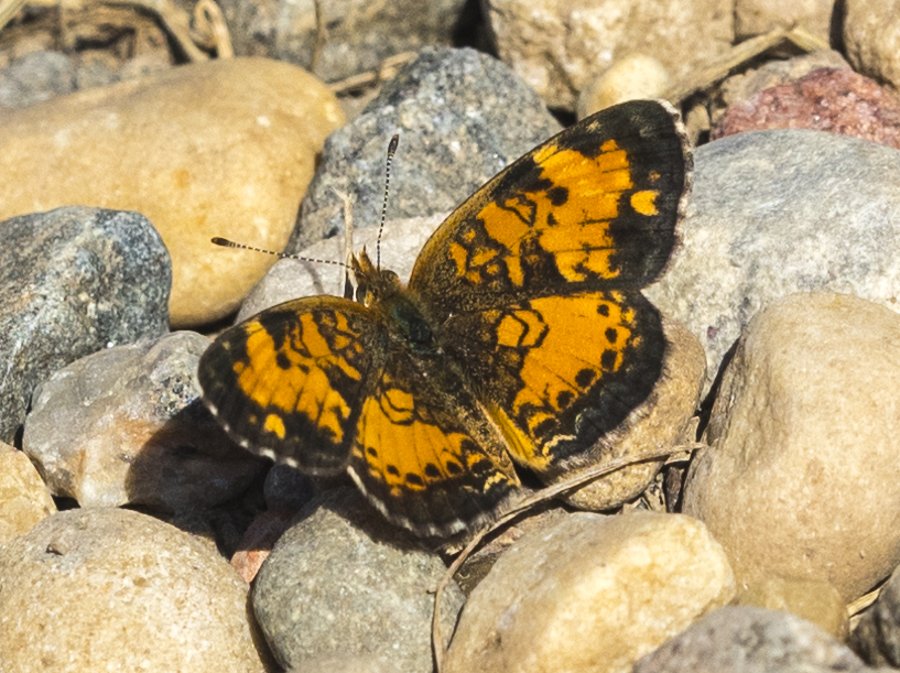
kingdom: Animalia
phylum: Arthropoda
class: Insecta
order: Lepidoptera
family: Nymphalidae
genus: Phyciodes
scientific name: Phyciodes tharos
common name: Northern Crescent
